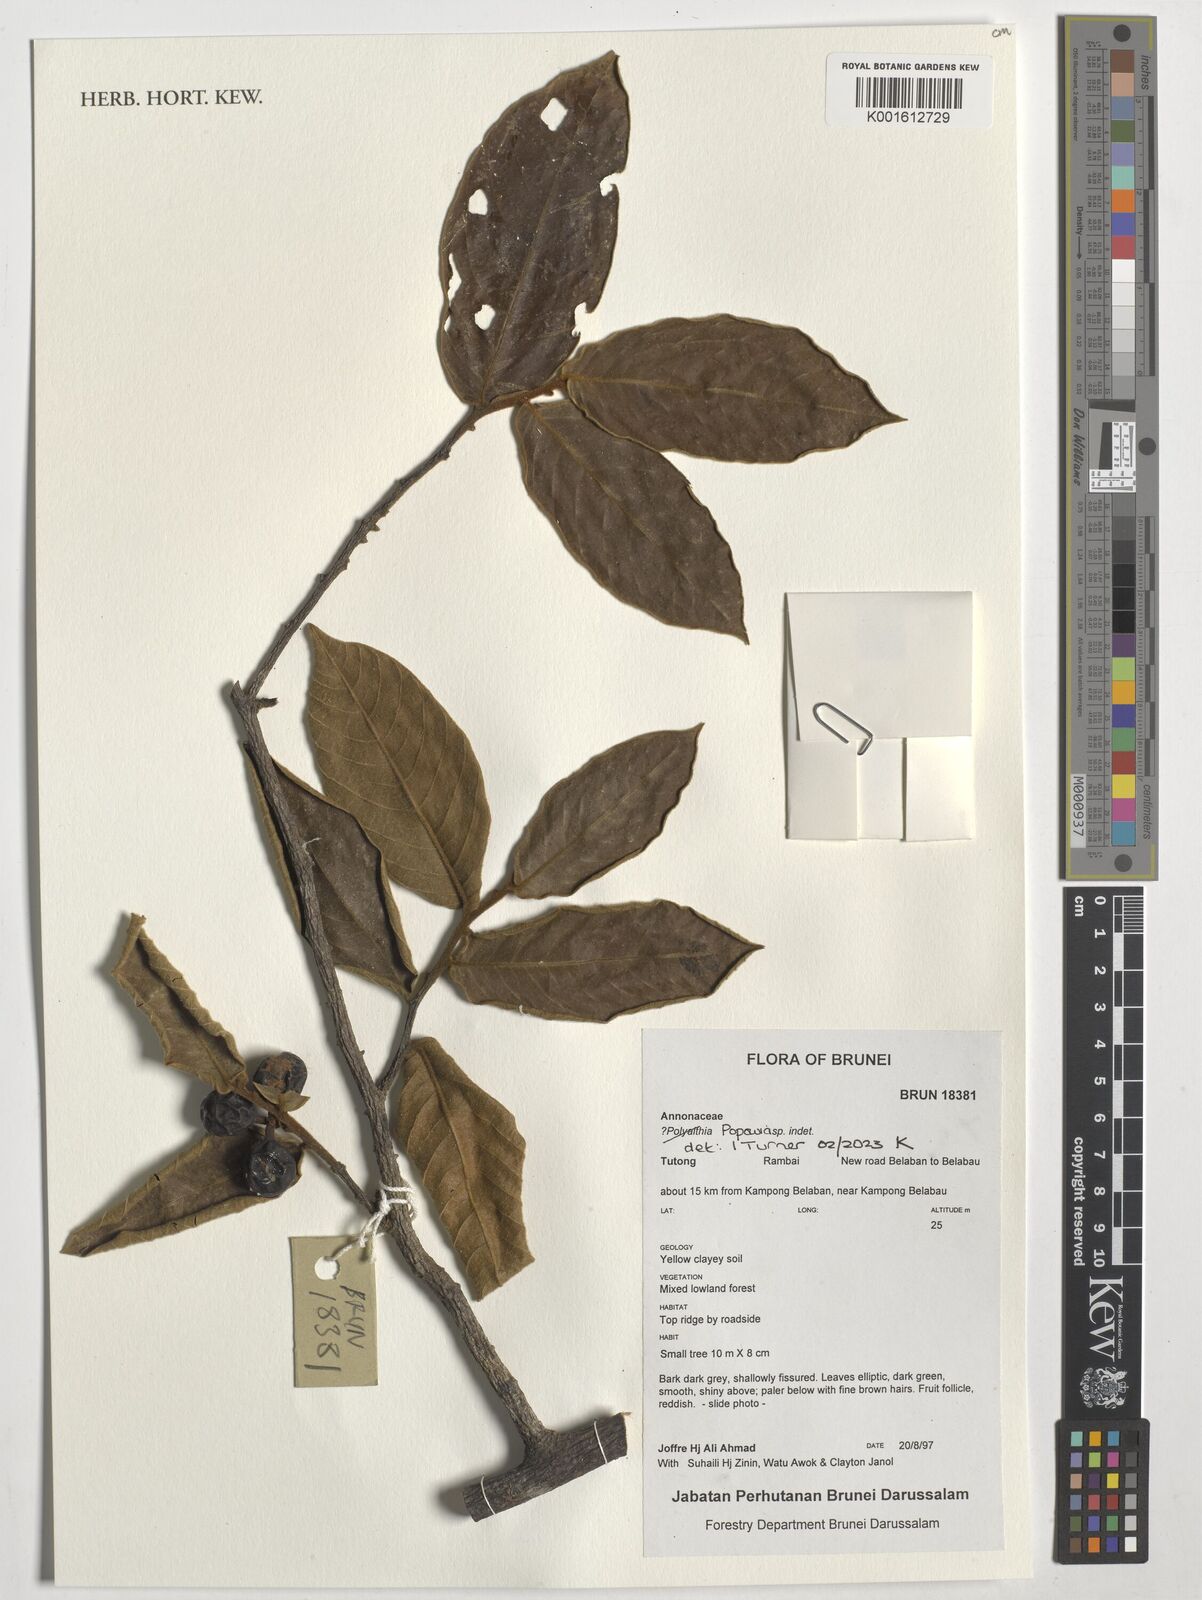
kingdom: Plantae
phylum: Tracheophyta
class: Magnoliopsida
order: Magnoliales
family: Annonaceae
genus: Popowia
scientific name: Popowia
